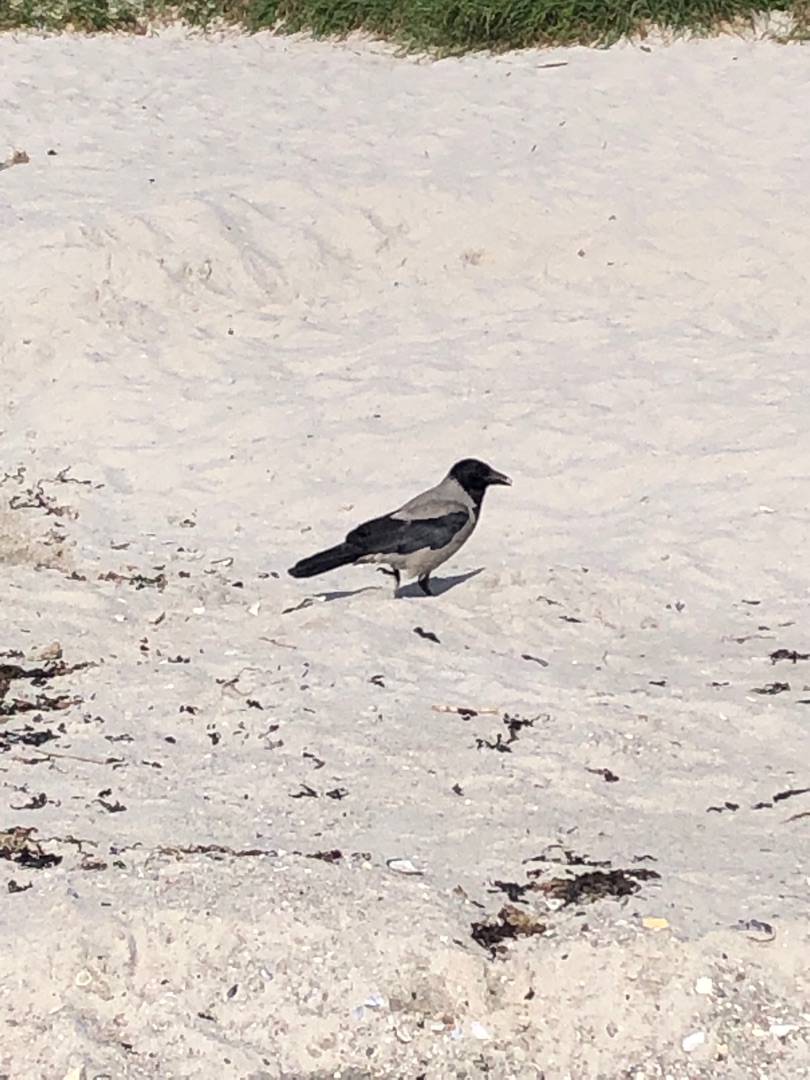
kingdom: Animalia
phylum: Chordata
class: Aves
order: Passeriformes
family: Corvidae
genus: Corvus
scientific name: Corvus cornix
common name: Gråkrage
